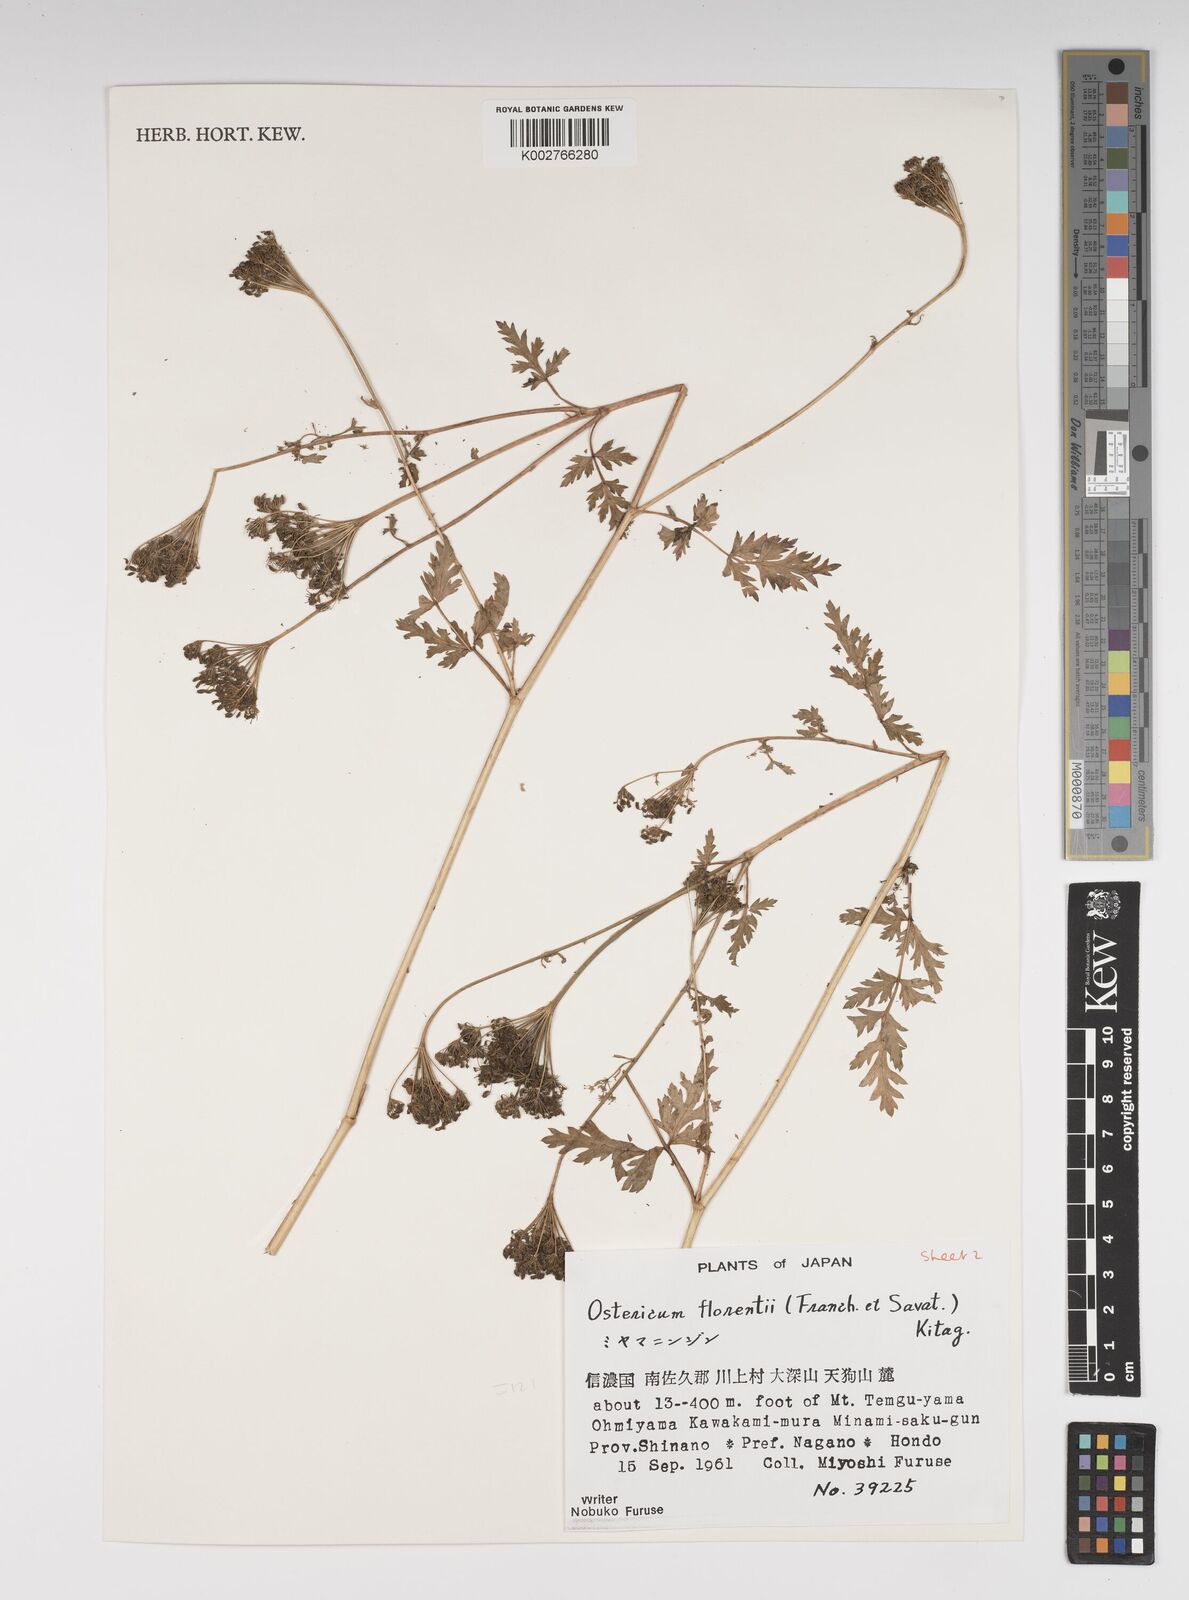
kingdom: Plantae
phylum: Tracheophyta
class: Magnoliopsida
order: Apiales
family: Apiaceae
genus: Ostericum
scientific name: Ostericum florenti
